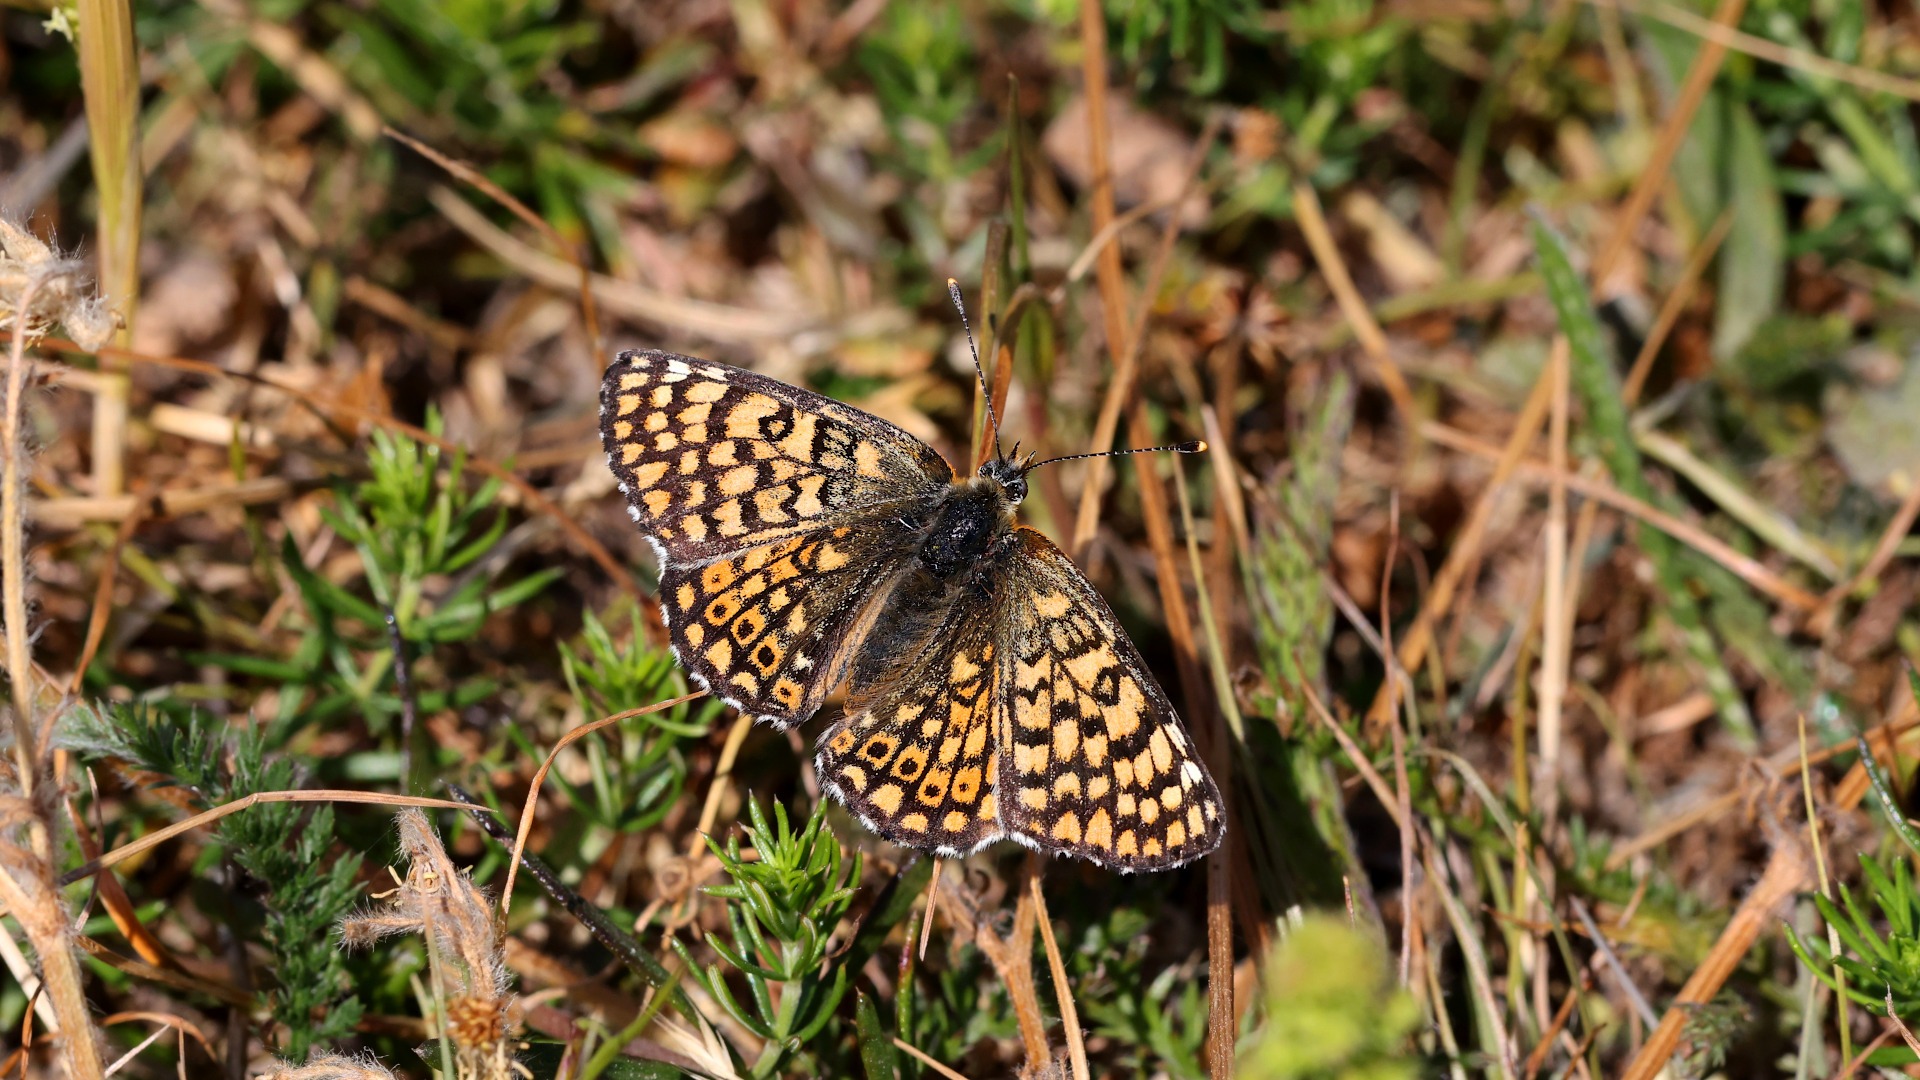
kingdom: Animalia
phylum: Arthropoda
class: Insecta
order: Lepidoptera
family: Nymphalidae
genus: Melitaea
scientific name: Melitaea cinxia
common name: Okkergul pletvinge
